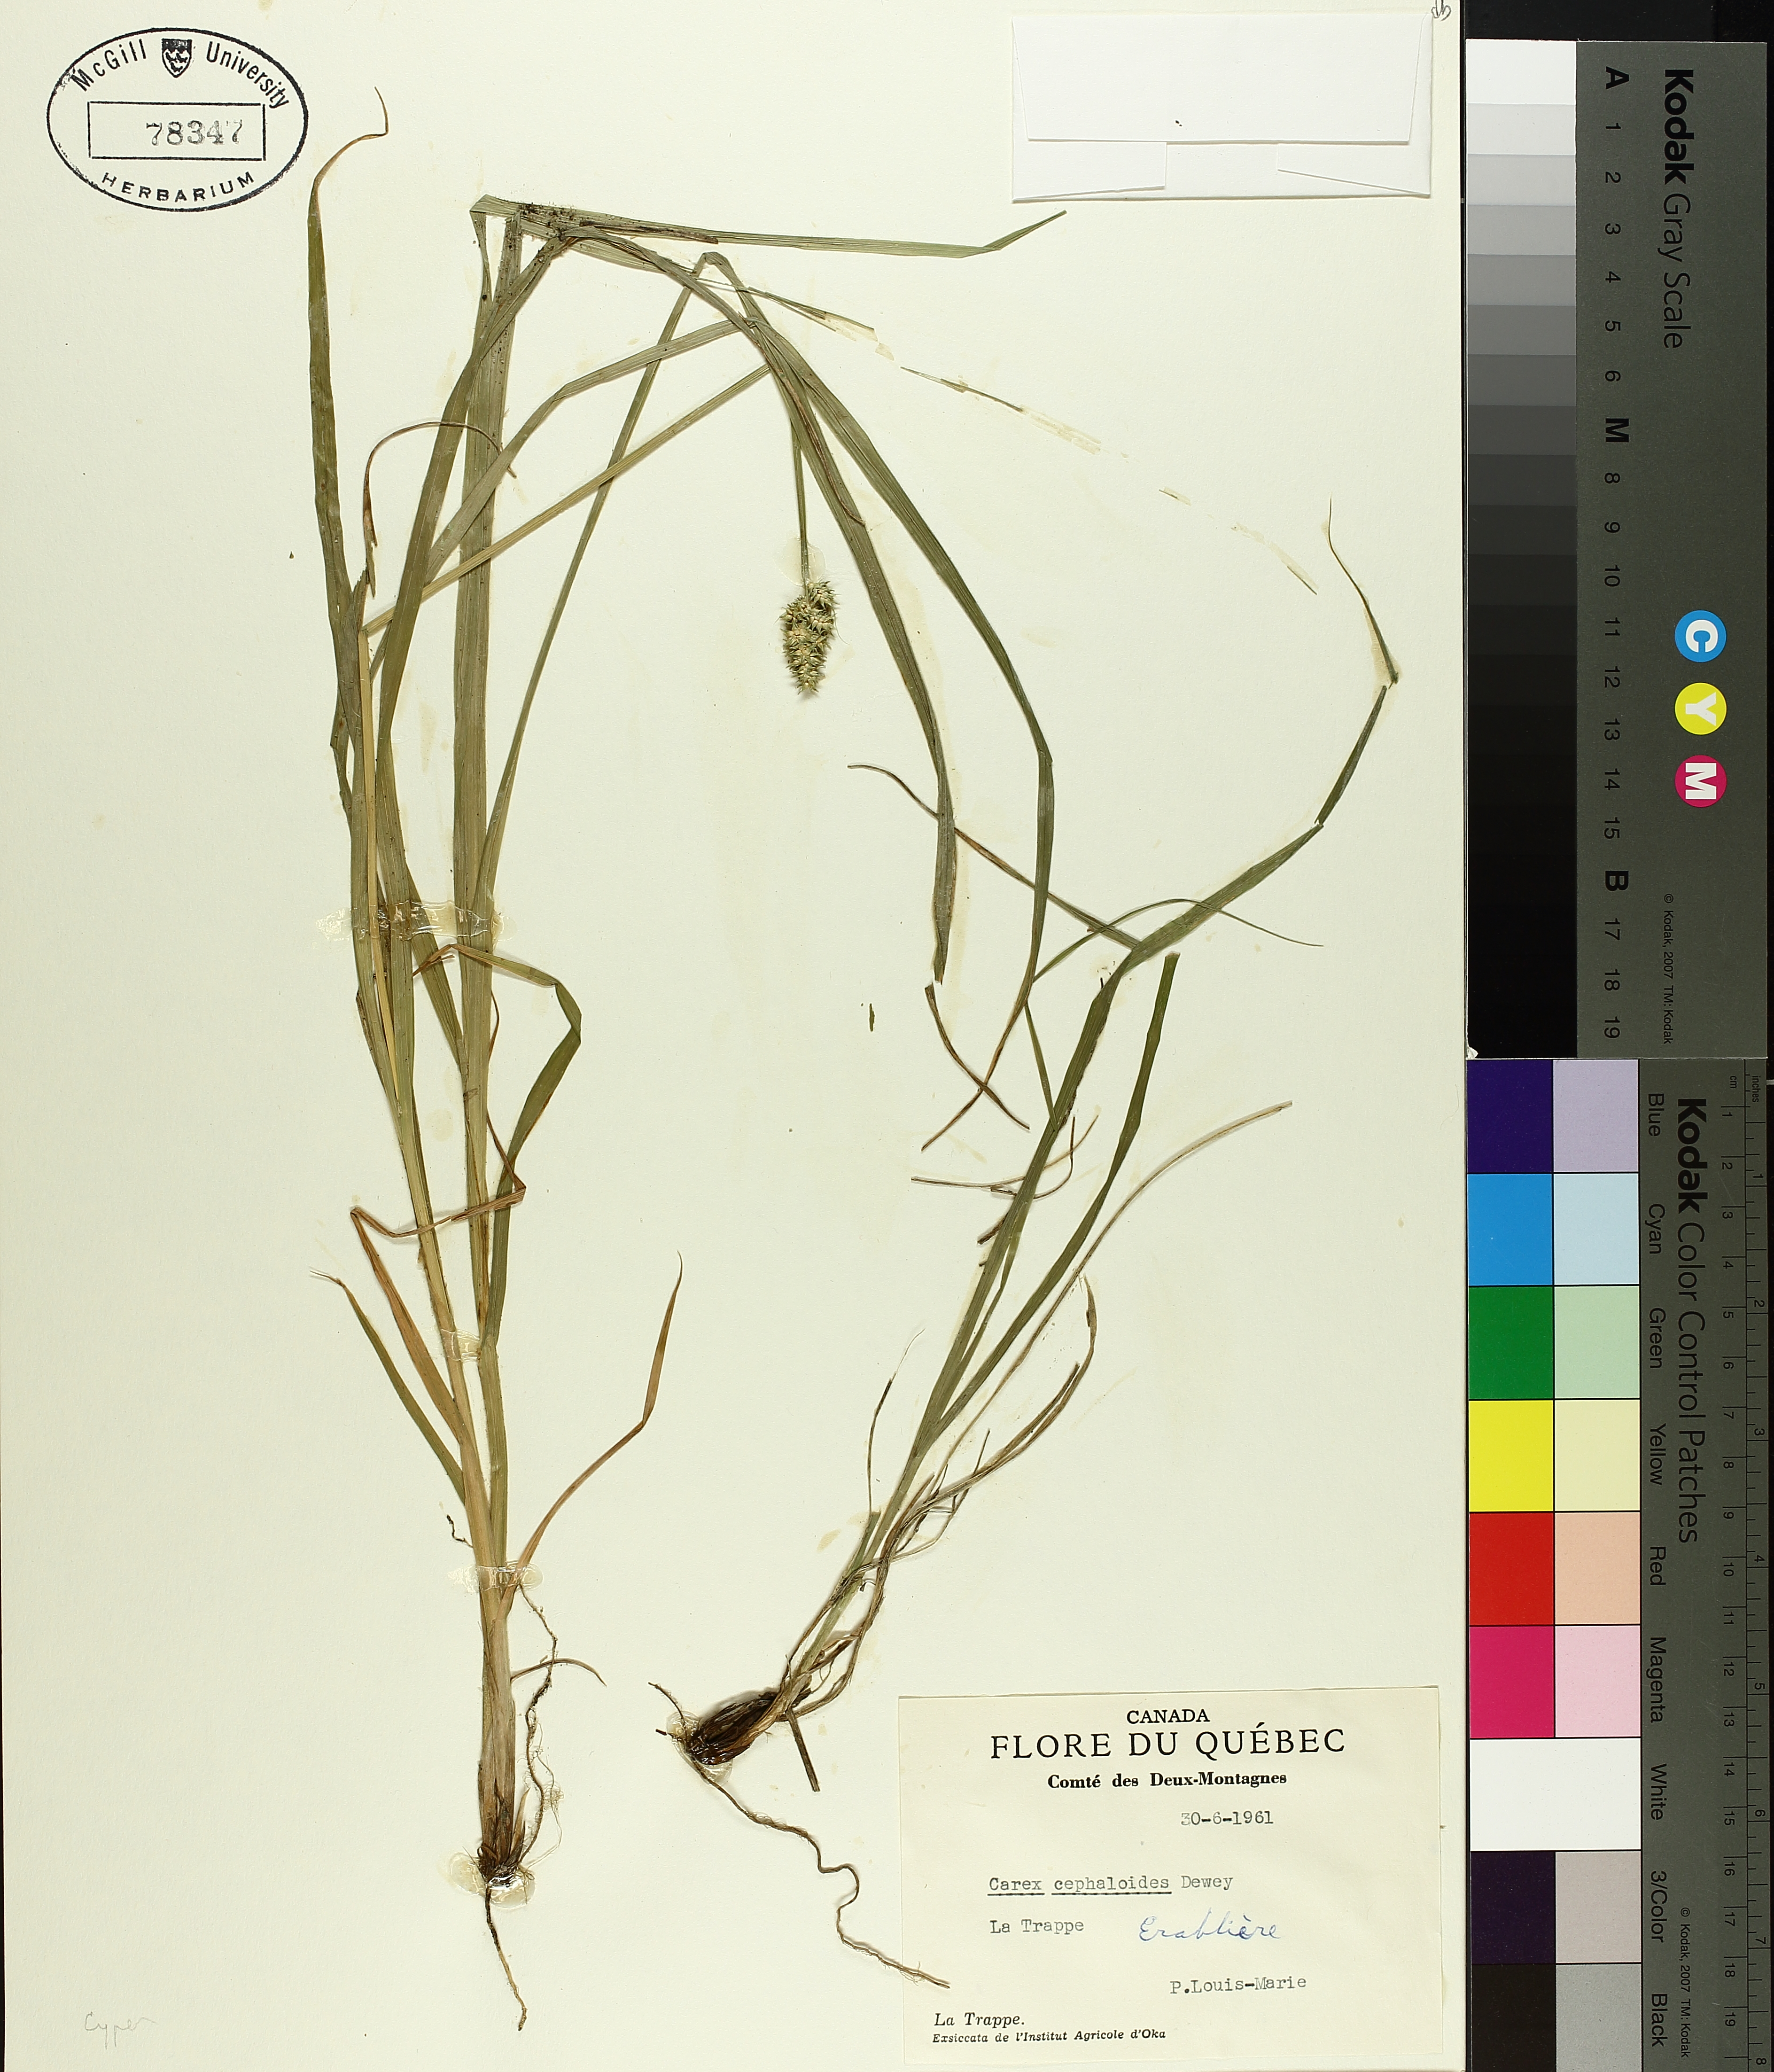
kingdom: Plantae
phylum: Tracheophyta
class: Liliopsida
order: Poales
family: Cyperaceae
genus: Carex
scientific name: Carex cephaloidea
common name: Thin-leaved sedge
